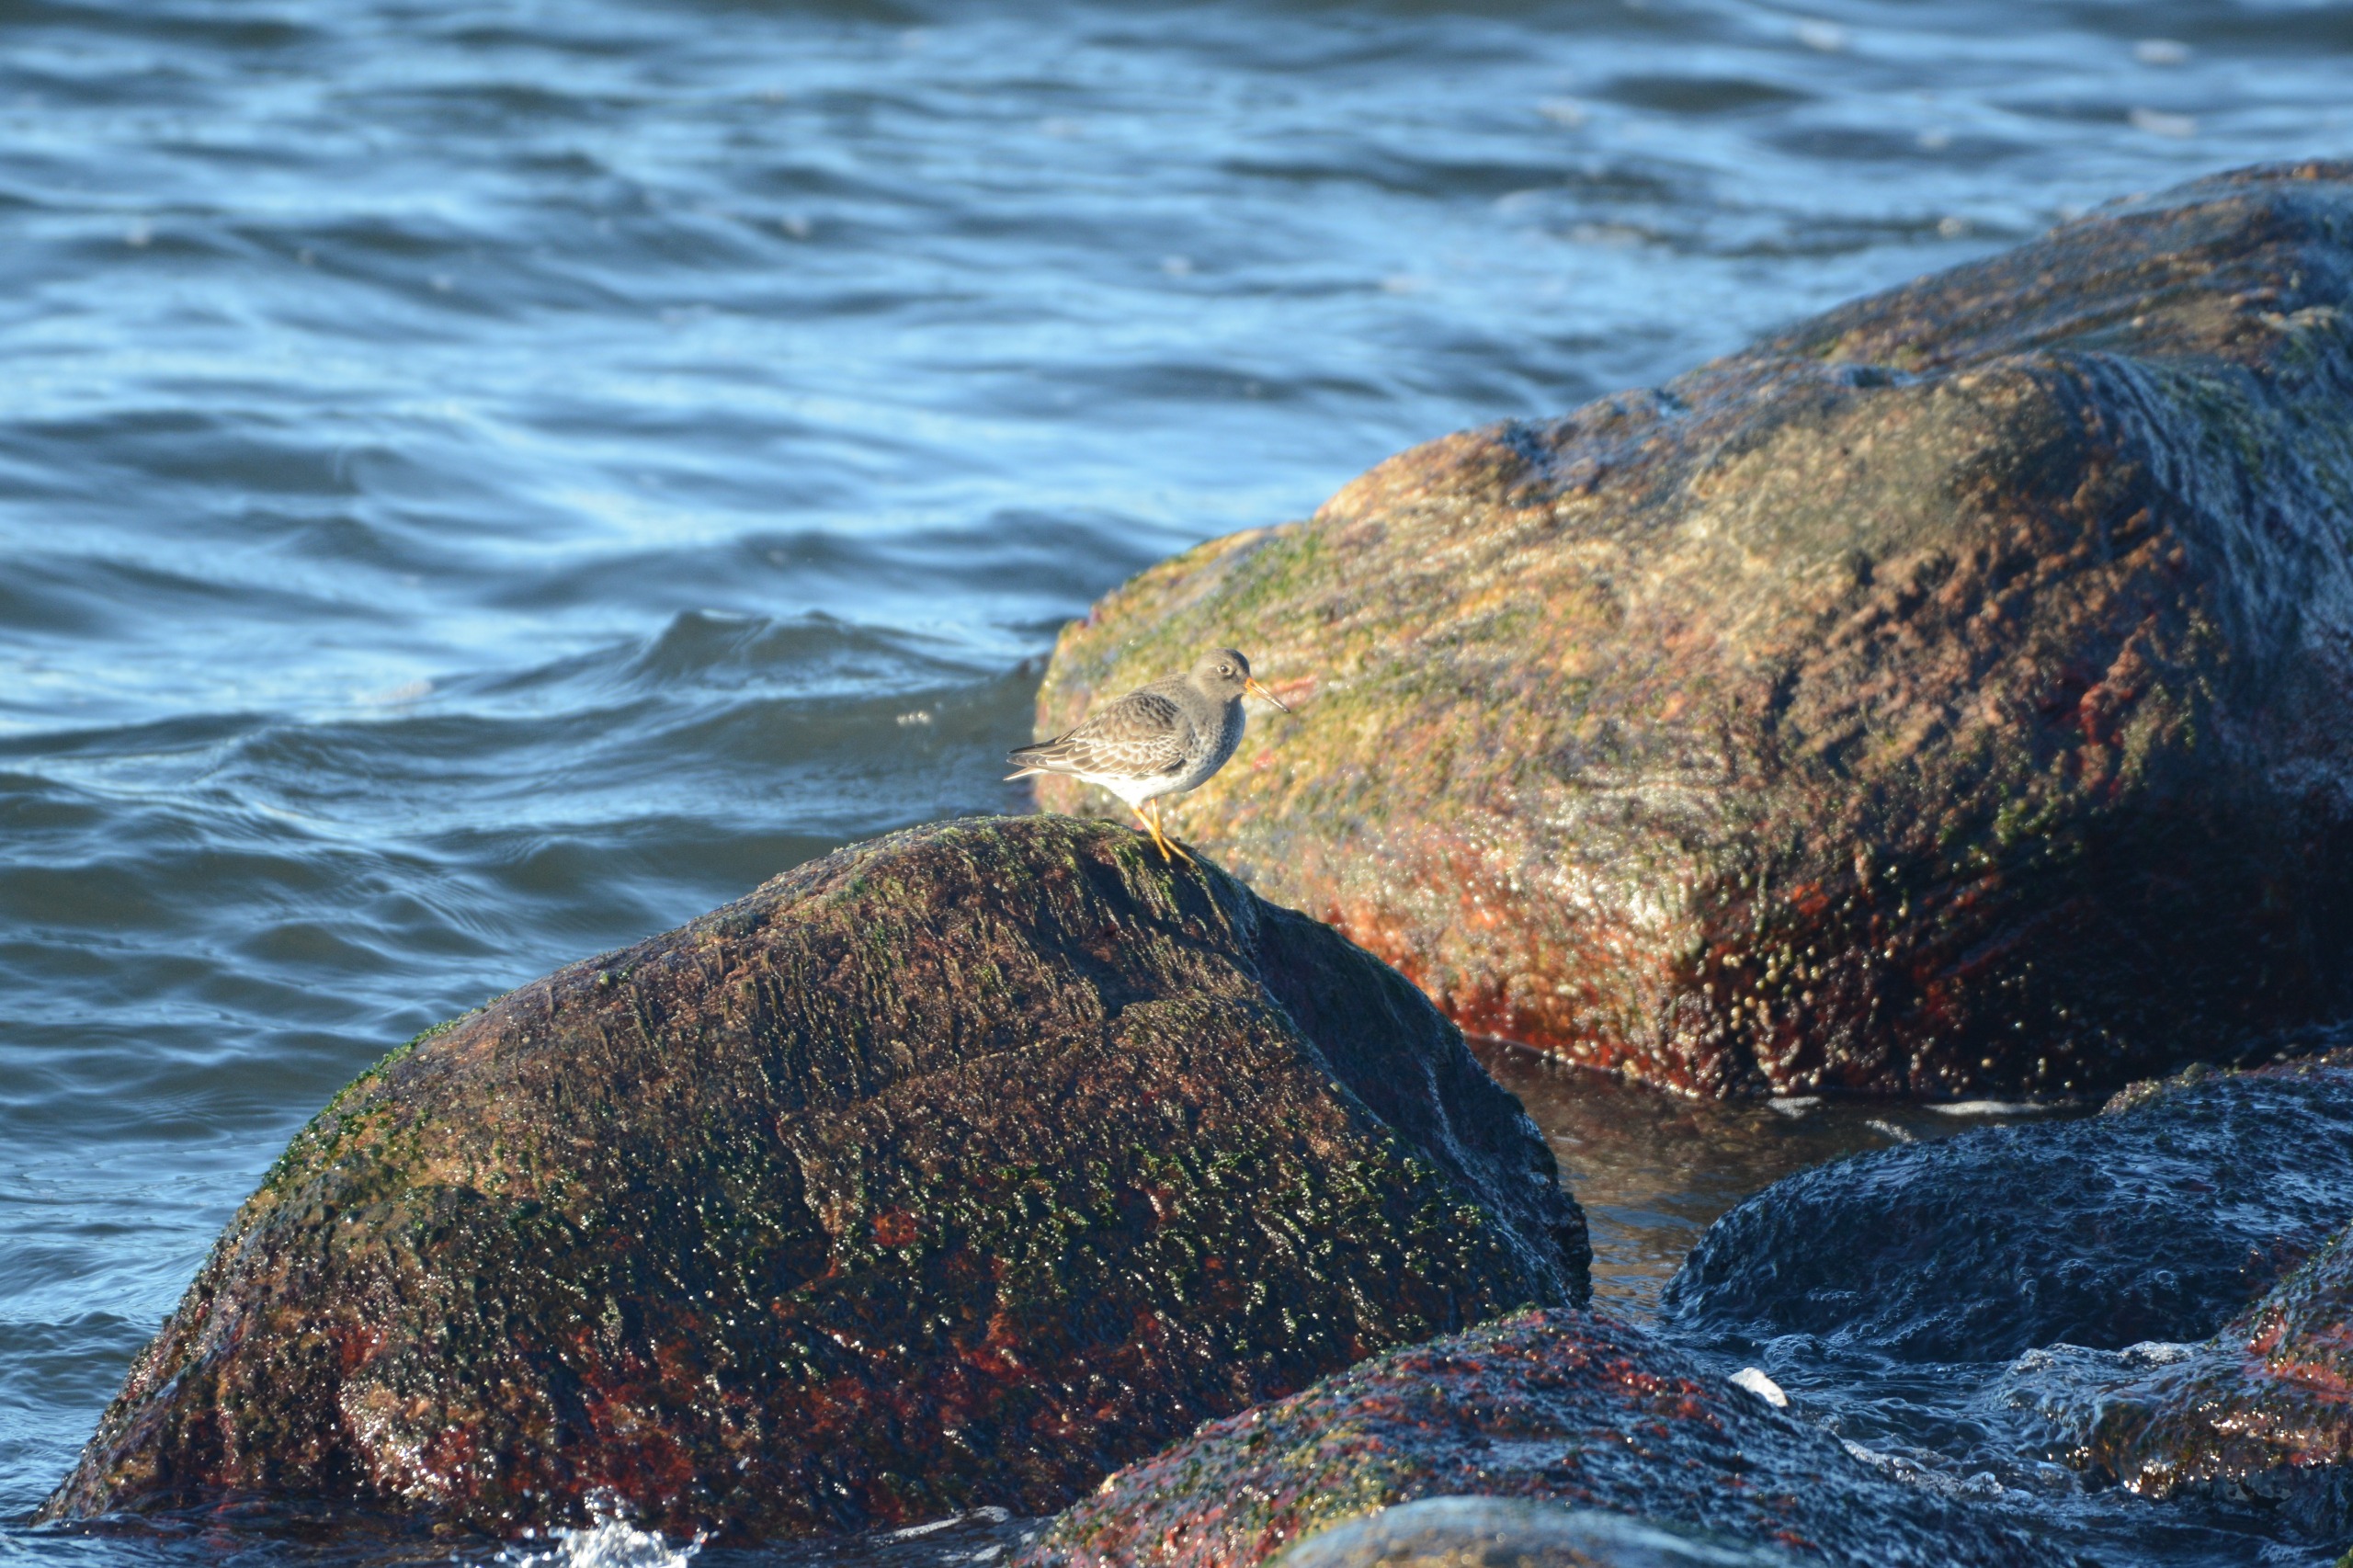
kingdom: Animalia
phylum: Chordata
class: Aves
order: Charadriiformes
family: Scolopacidae
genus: Calidris
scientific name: Calidris maritima
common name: Sortgrå ryle
